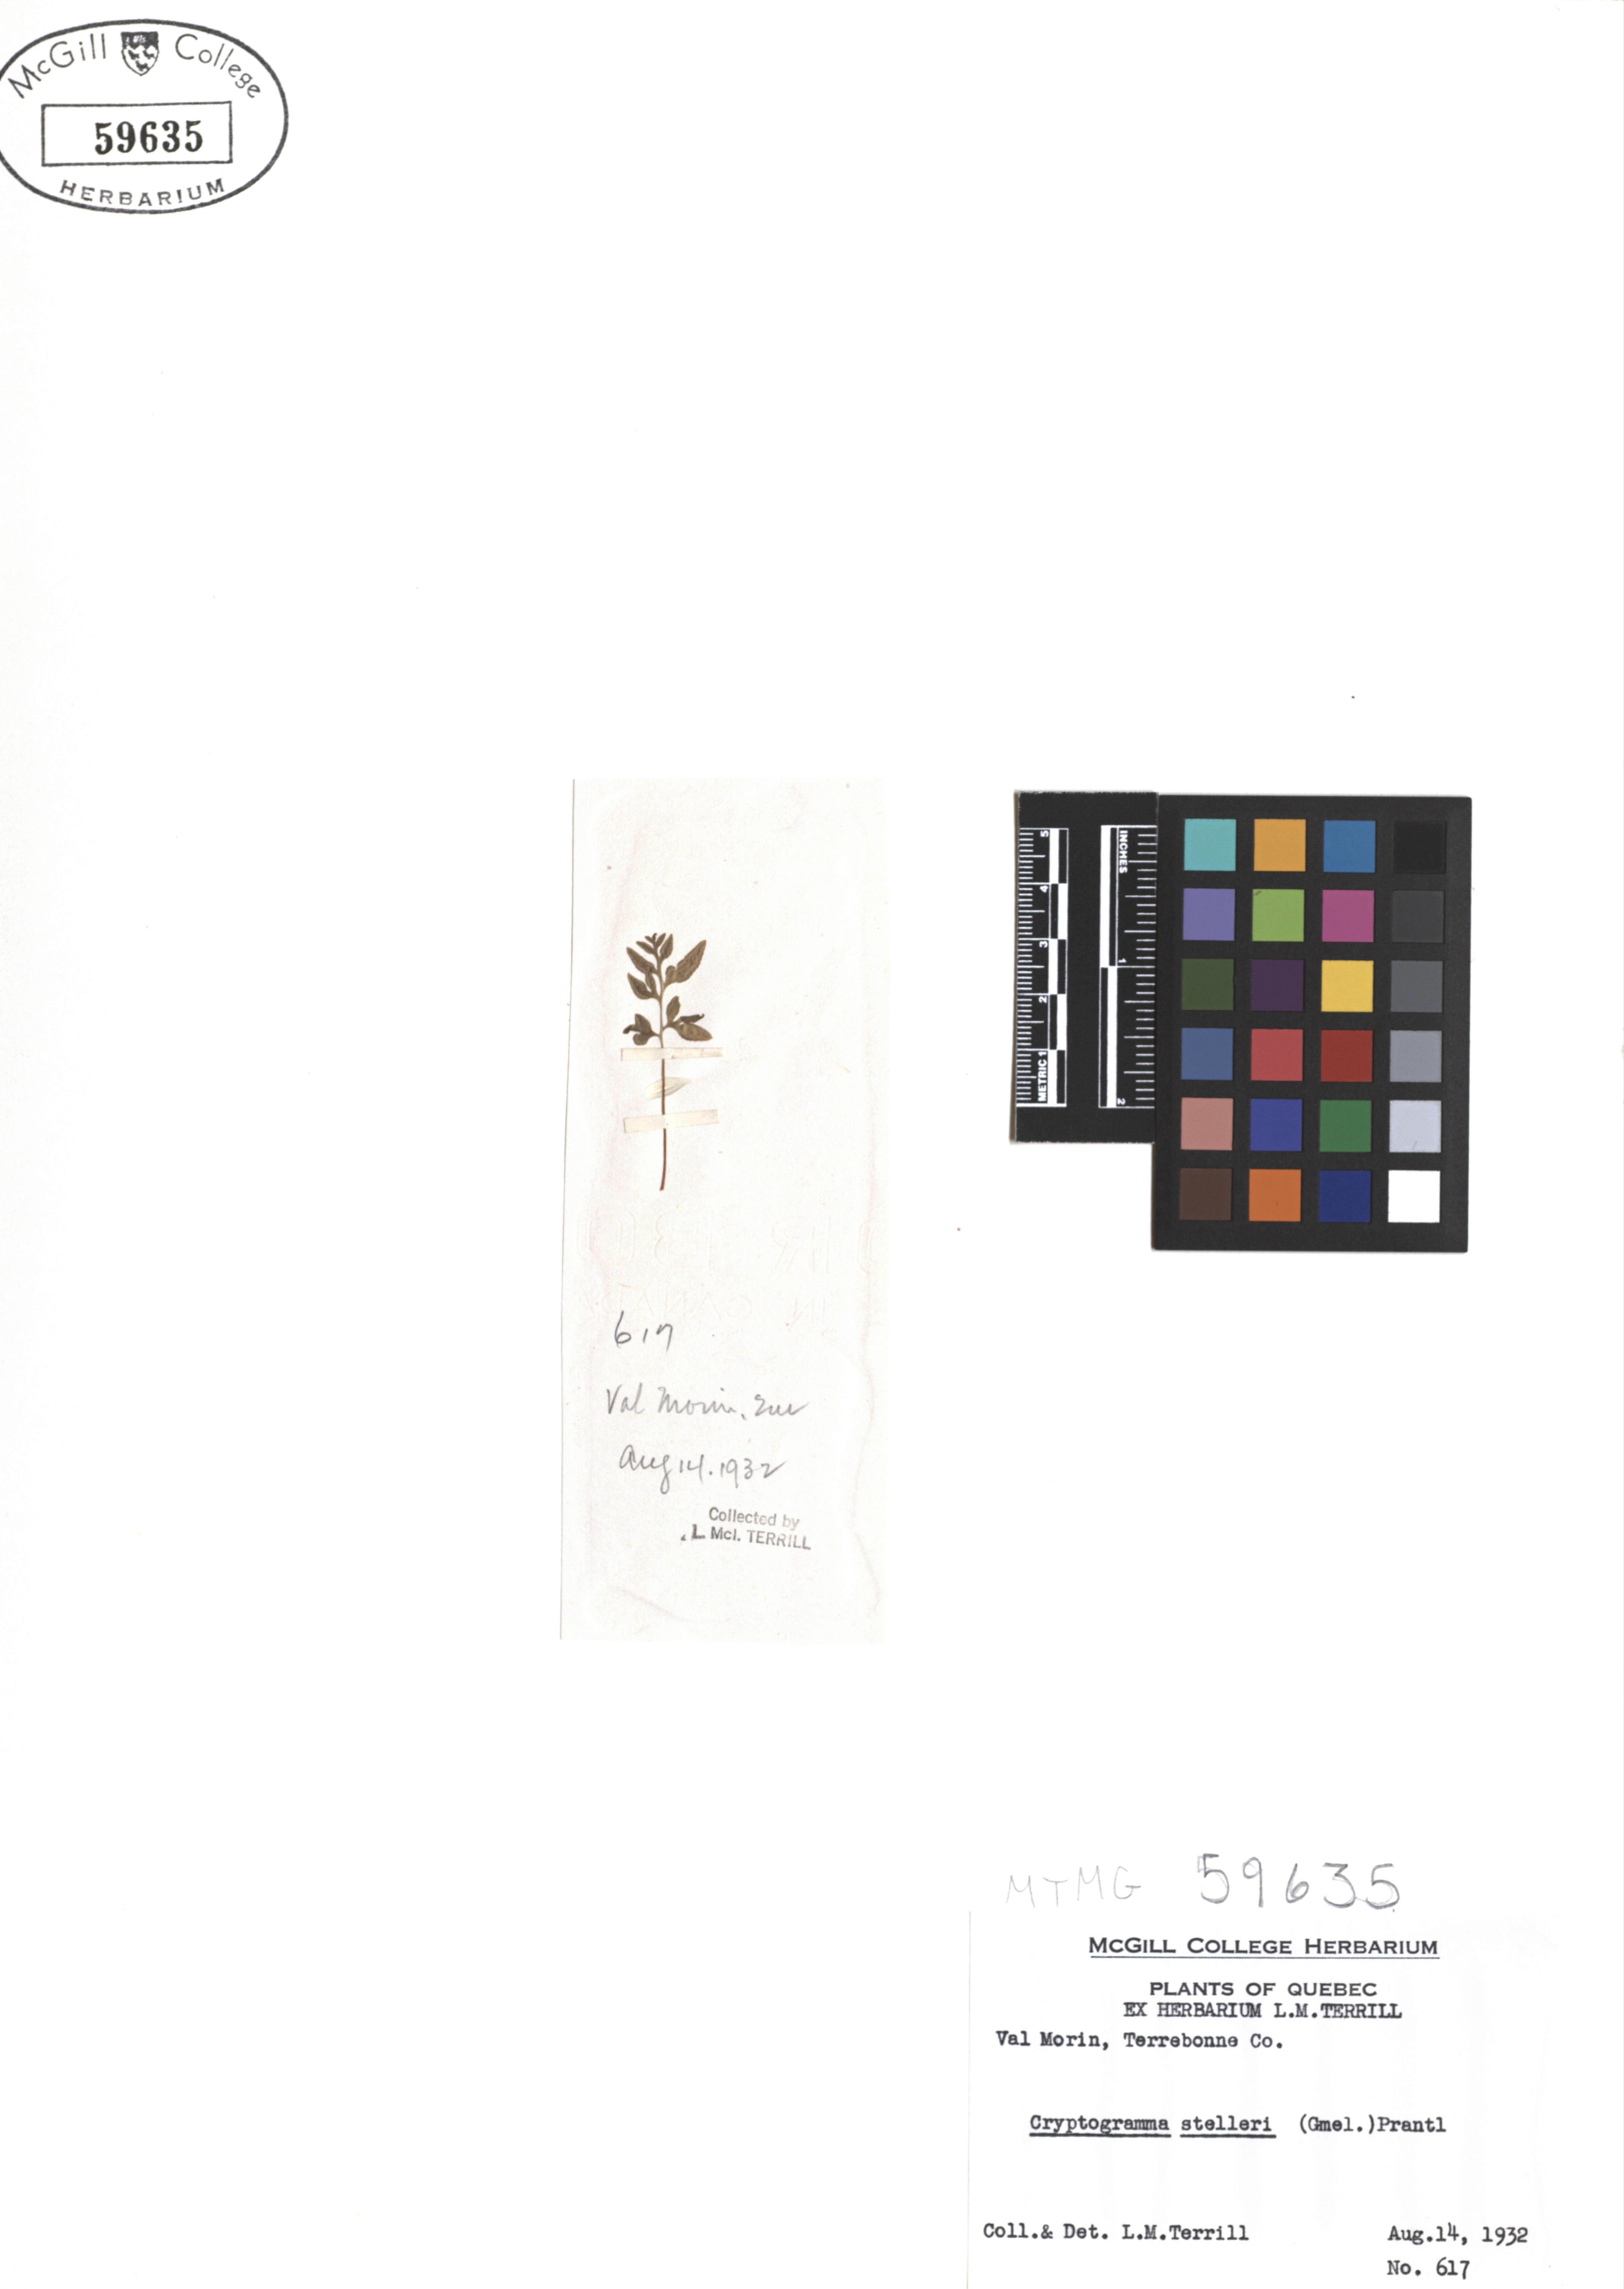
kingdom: Plantae
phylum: Tracheophyta
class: Polypodiopsida
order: Polypodiales
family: Pteridaceae
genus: Cryptogramma
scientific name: Cryptogramma stelleri
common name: Cliff-brake
